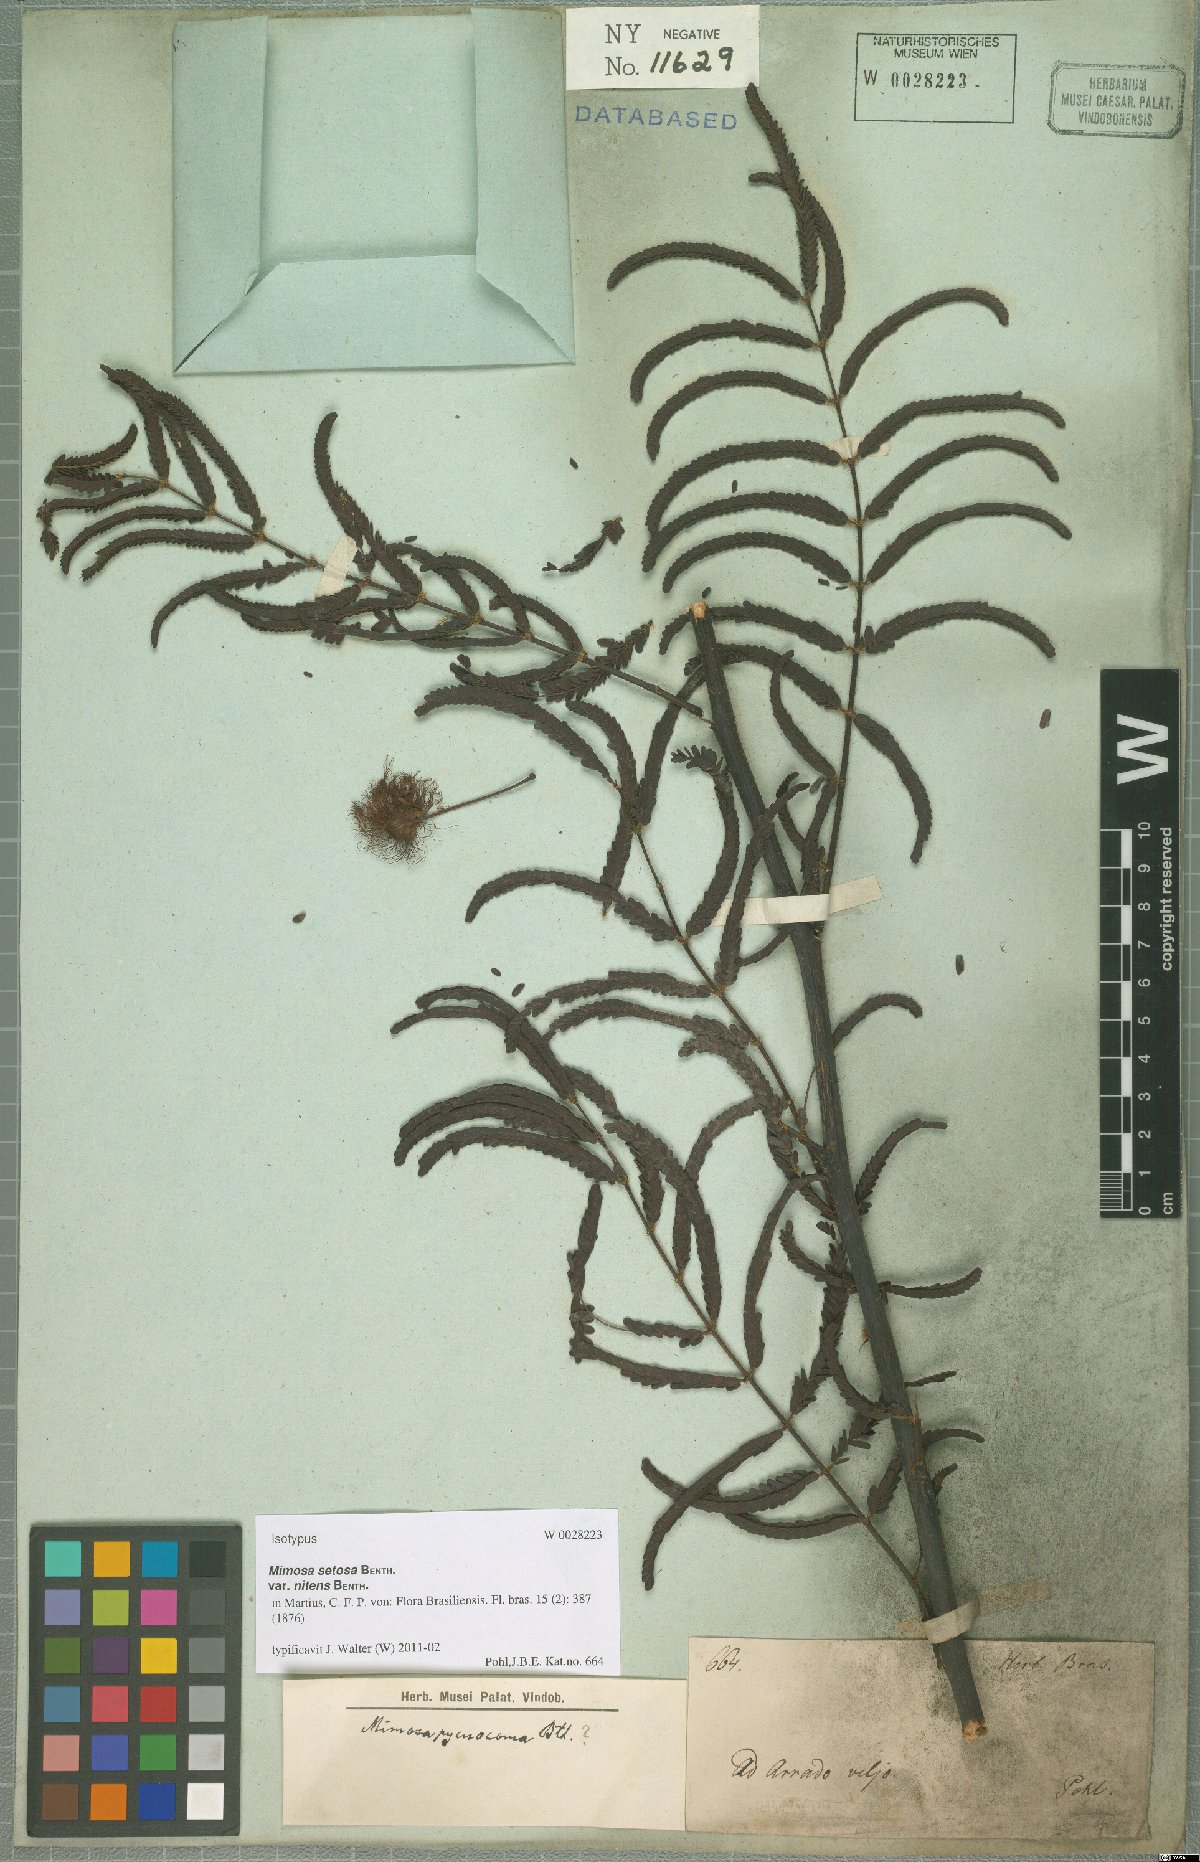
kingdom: Plantae
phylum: Tracheophyta
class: Magnoliopsida
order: Fabales
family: Fabaceae
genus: Mimosa
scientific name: Mimosa neonitens
